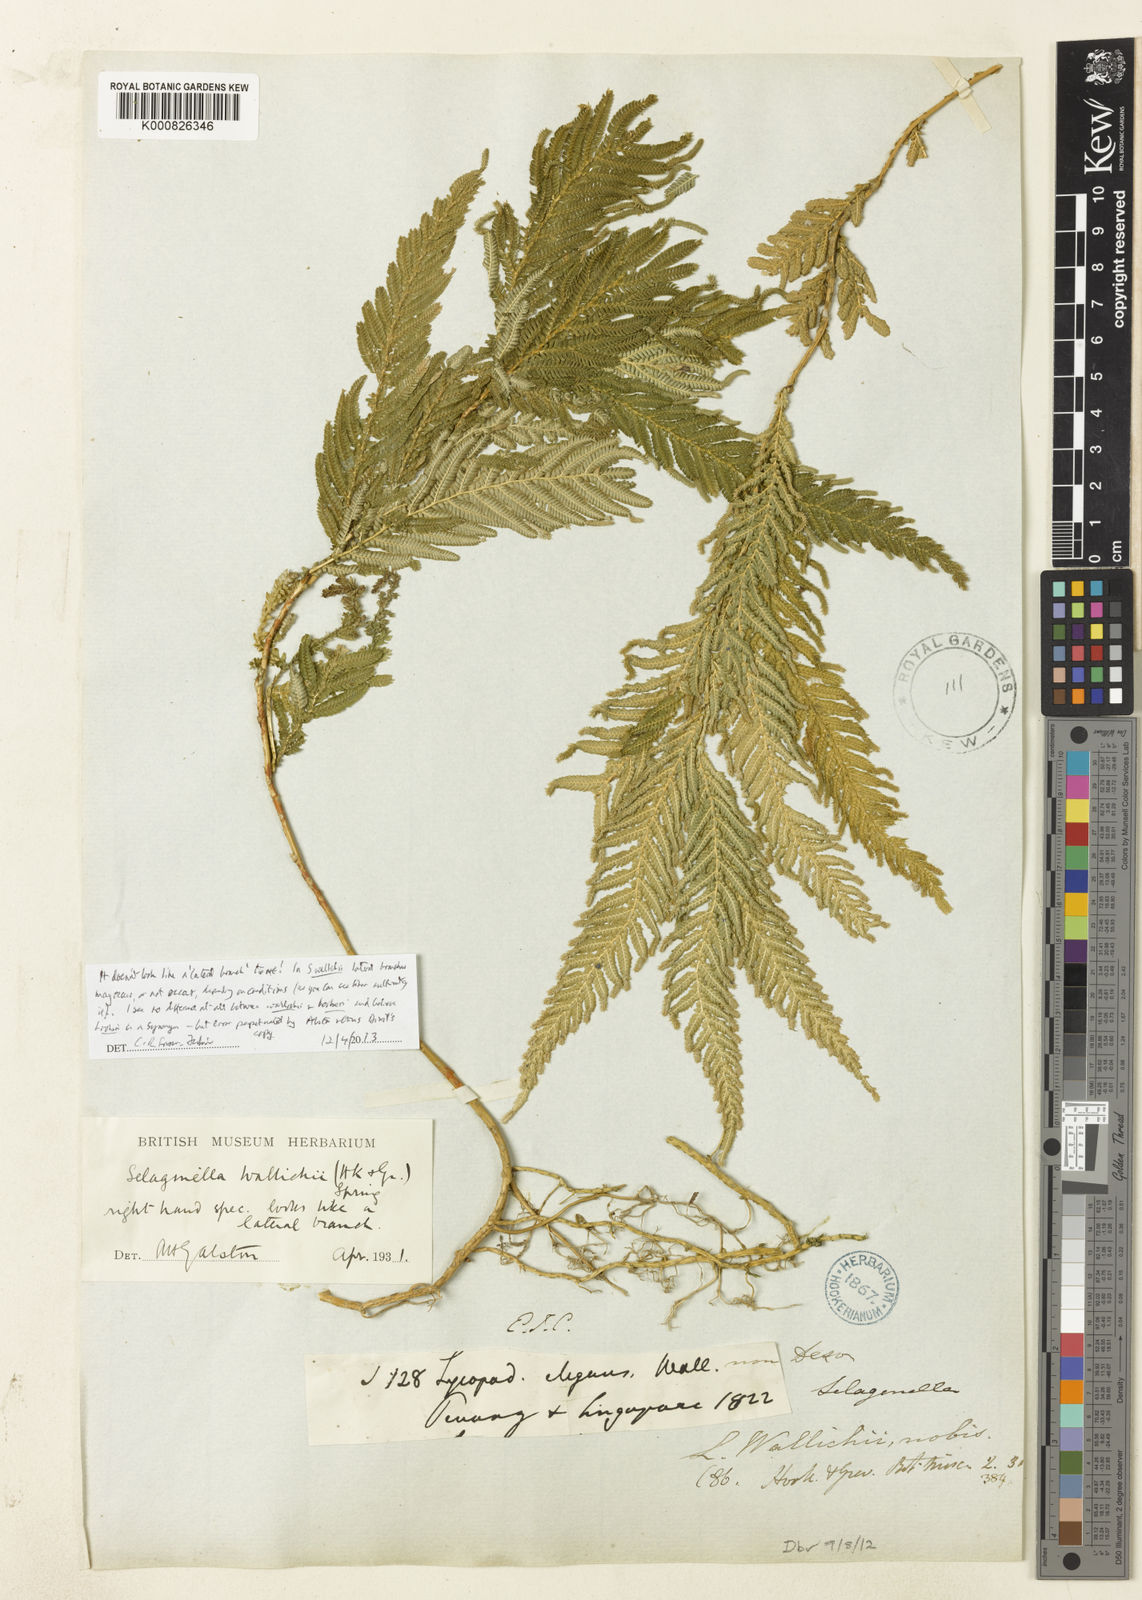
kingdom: Plantae
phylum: Tracheophyta
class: Lycopodiopsida
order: Selaginellales
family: Selaginellaceae
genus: Selaginella
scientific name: Selaginella wallichii
